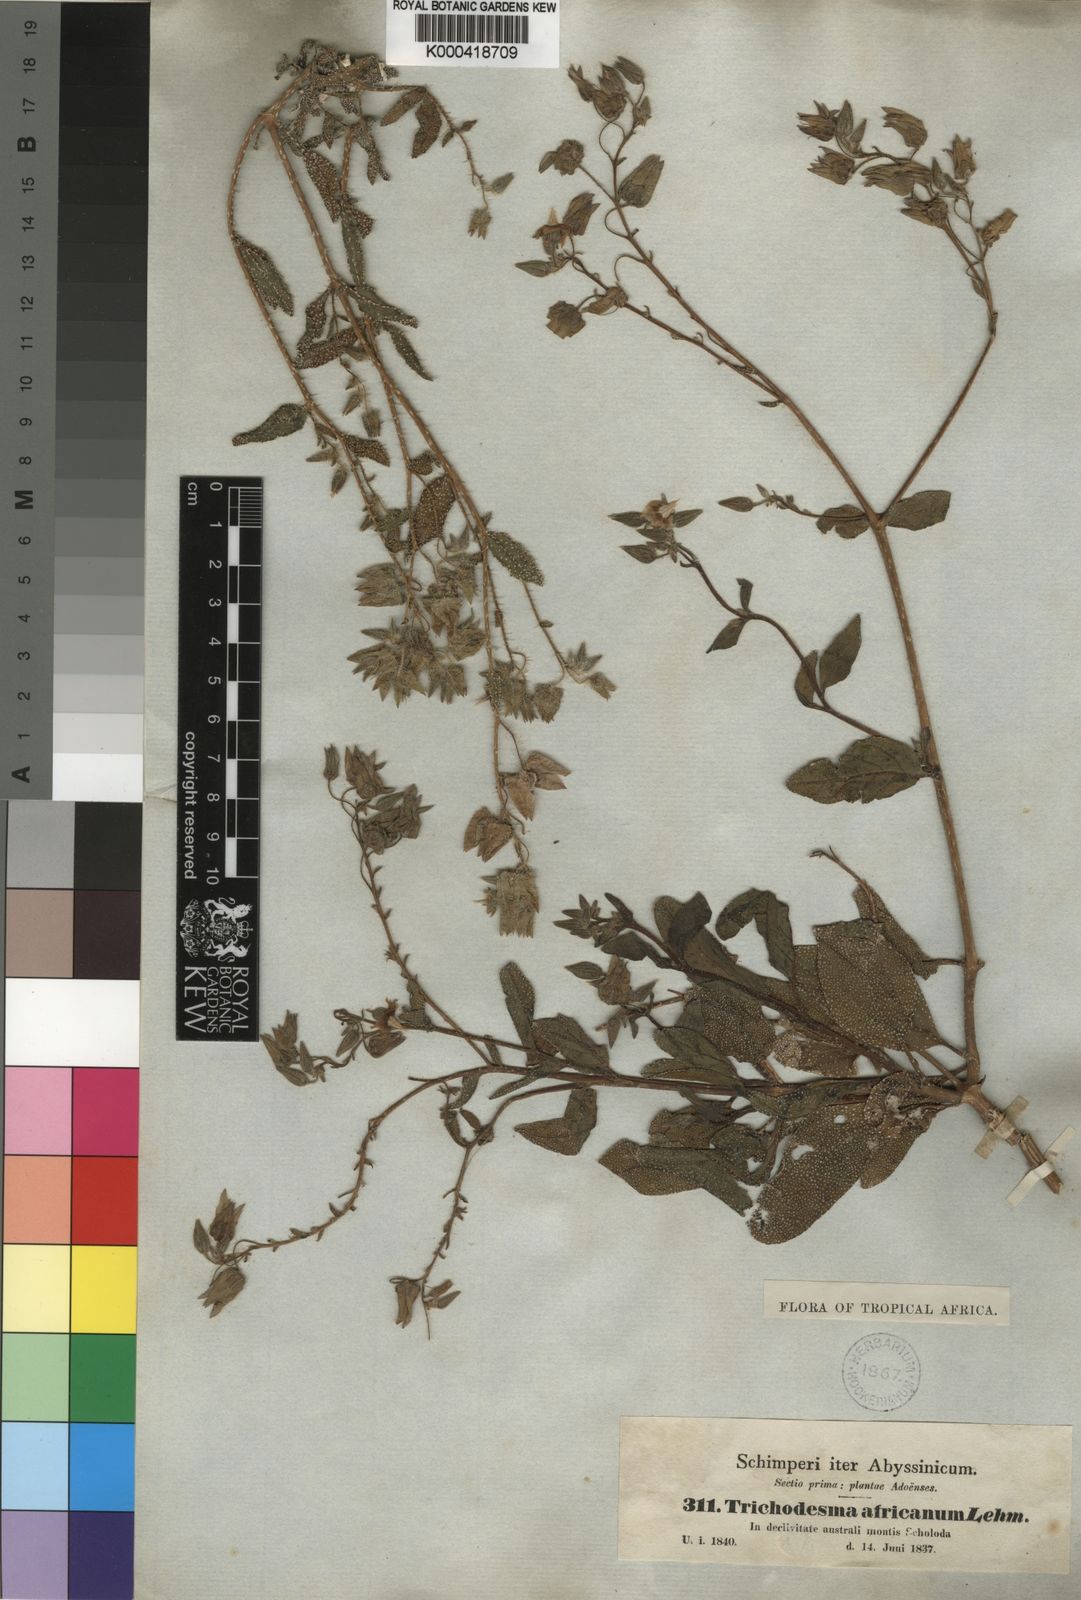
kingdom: Plantae
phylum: Tracheophyta
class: Magnoliopsida
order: Boraginales
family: Boraginaceae
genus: Trichodesma
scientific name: Trichodesma
